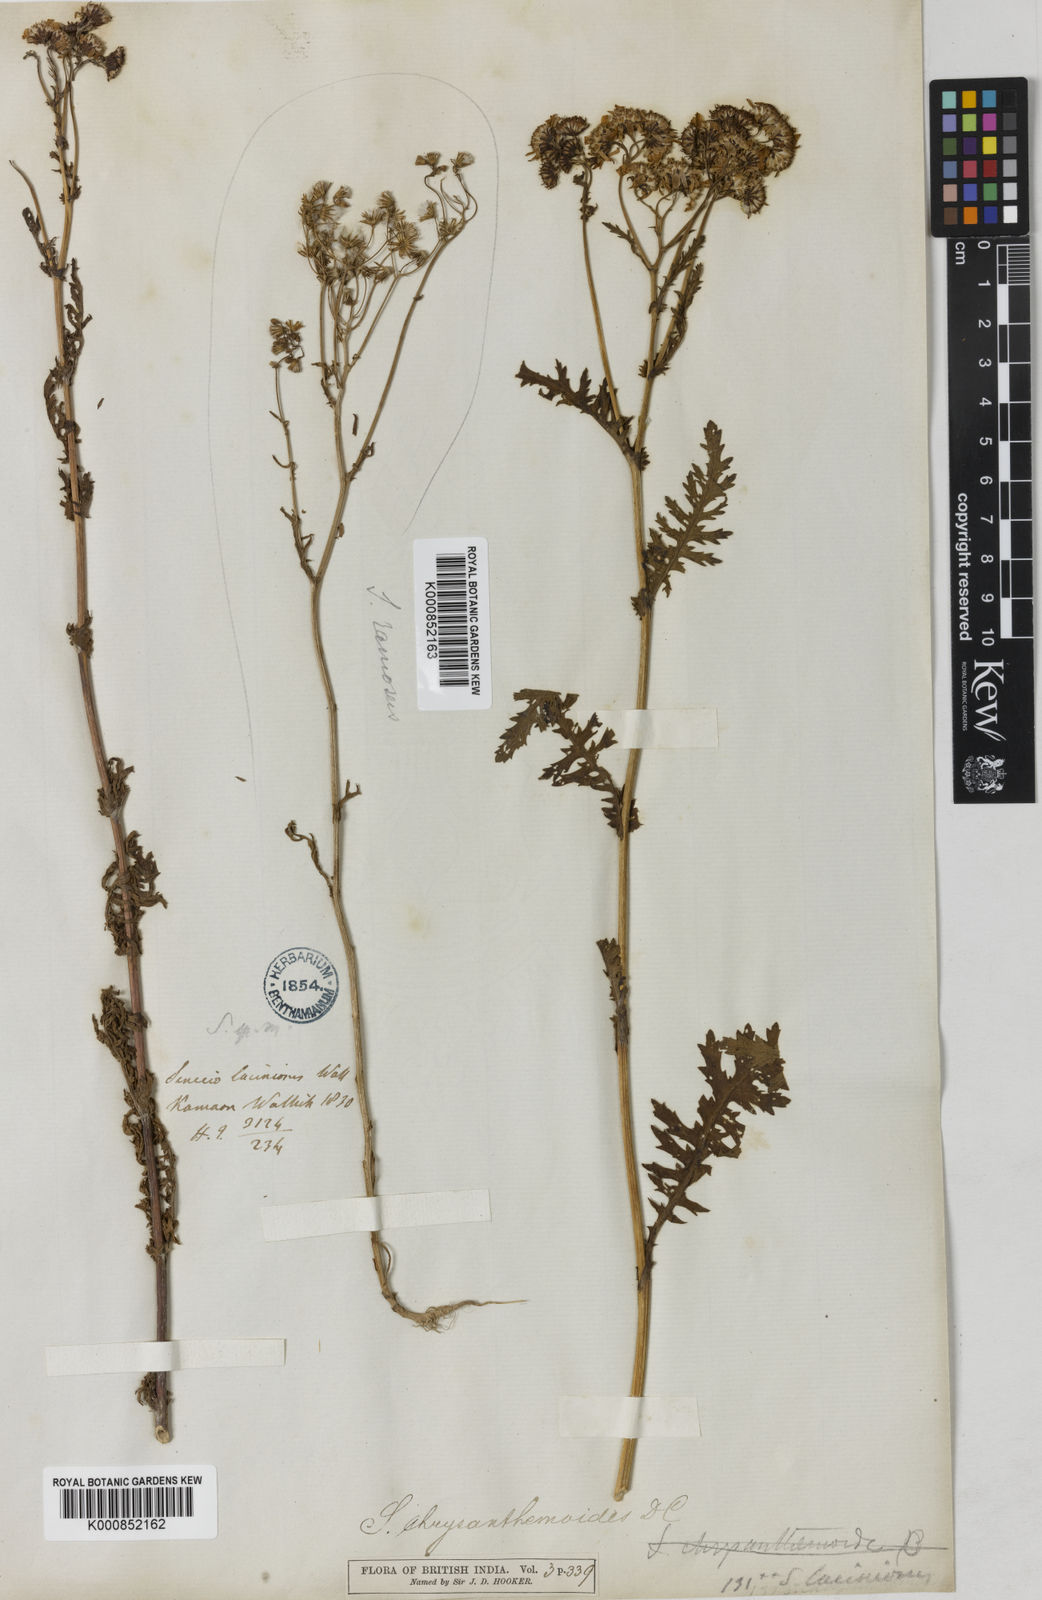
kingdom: Plantae
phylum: Tracheophyta
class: Magnoliopsida
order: Asterales
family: Asteraceae
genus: Jacobaea
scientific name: Jacobaea analoga
